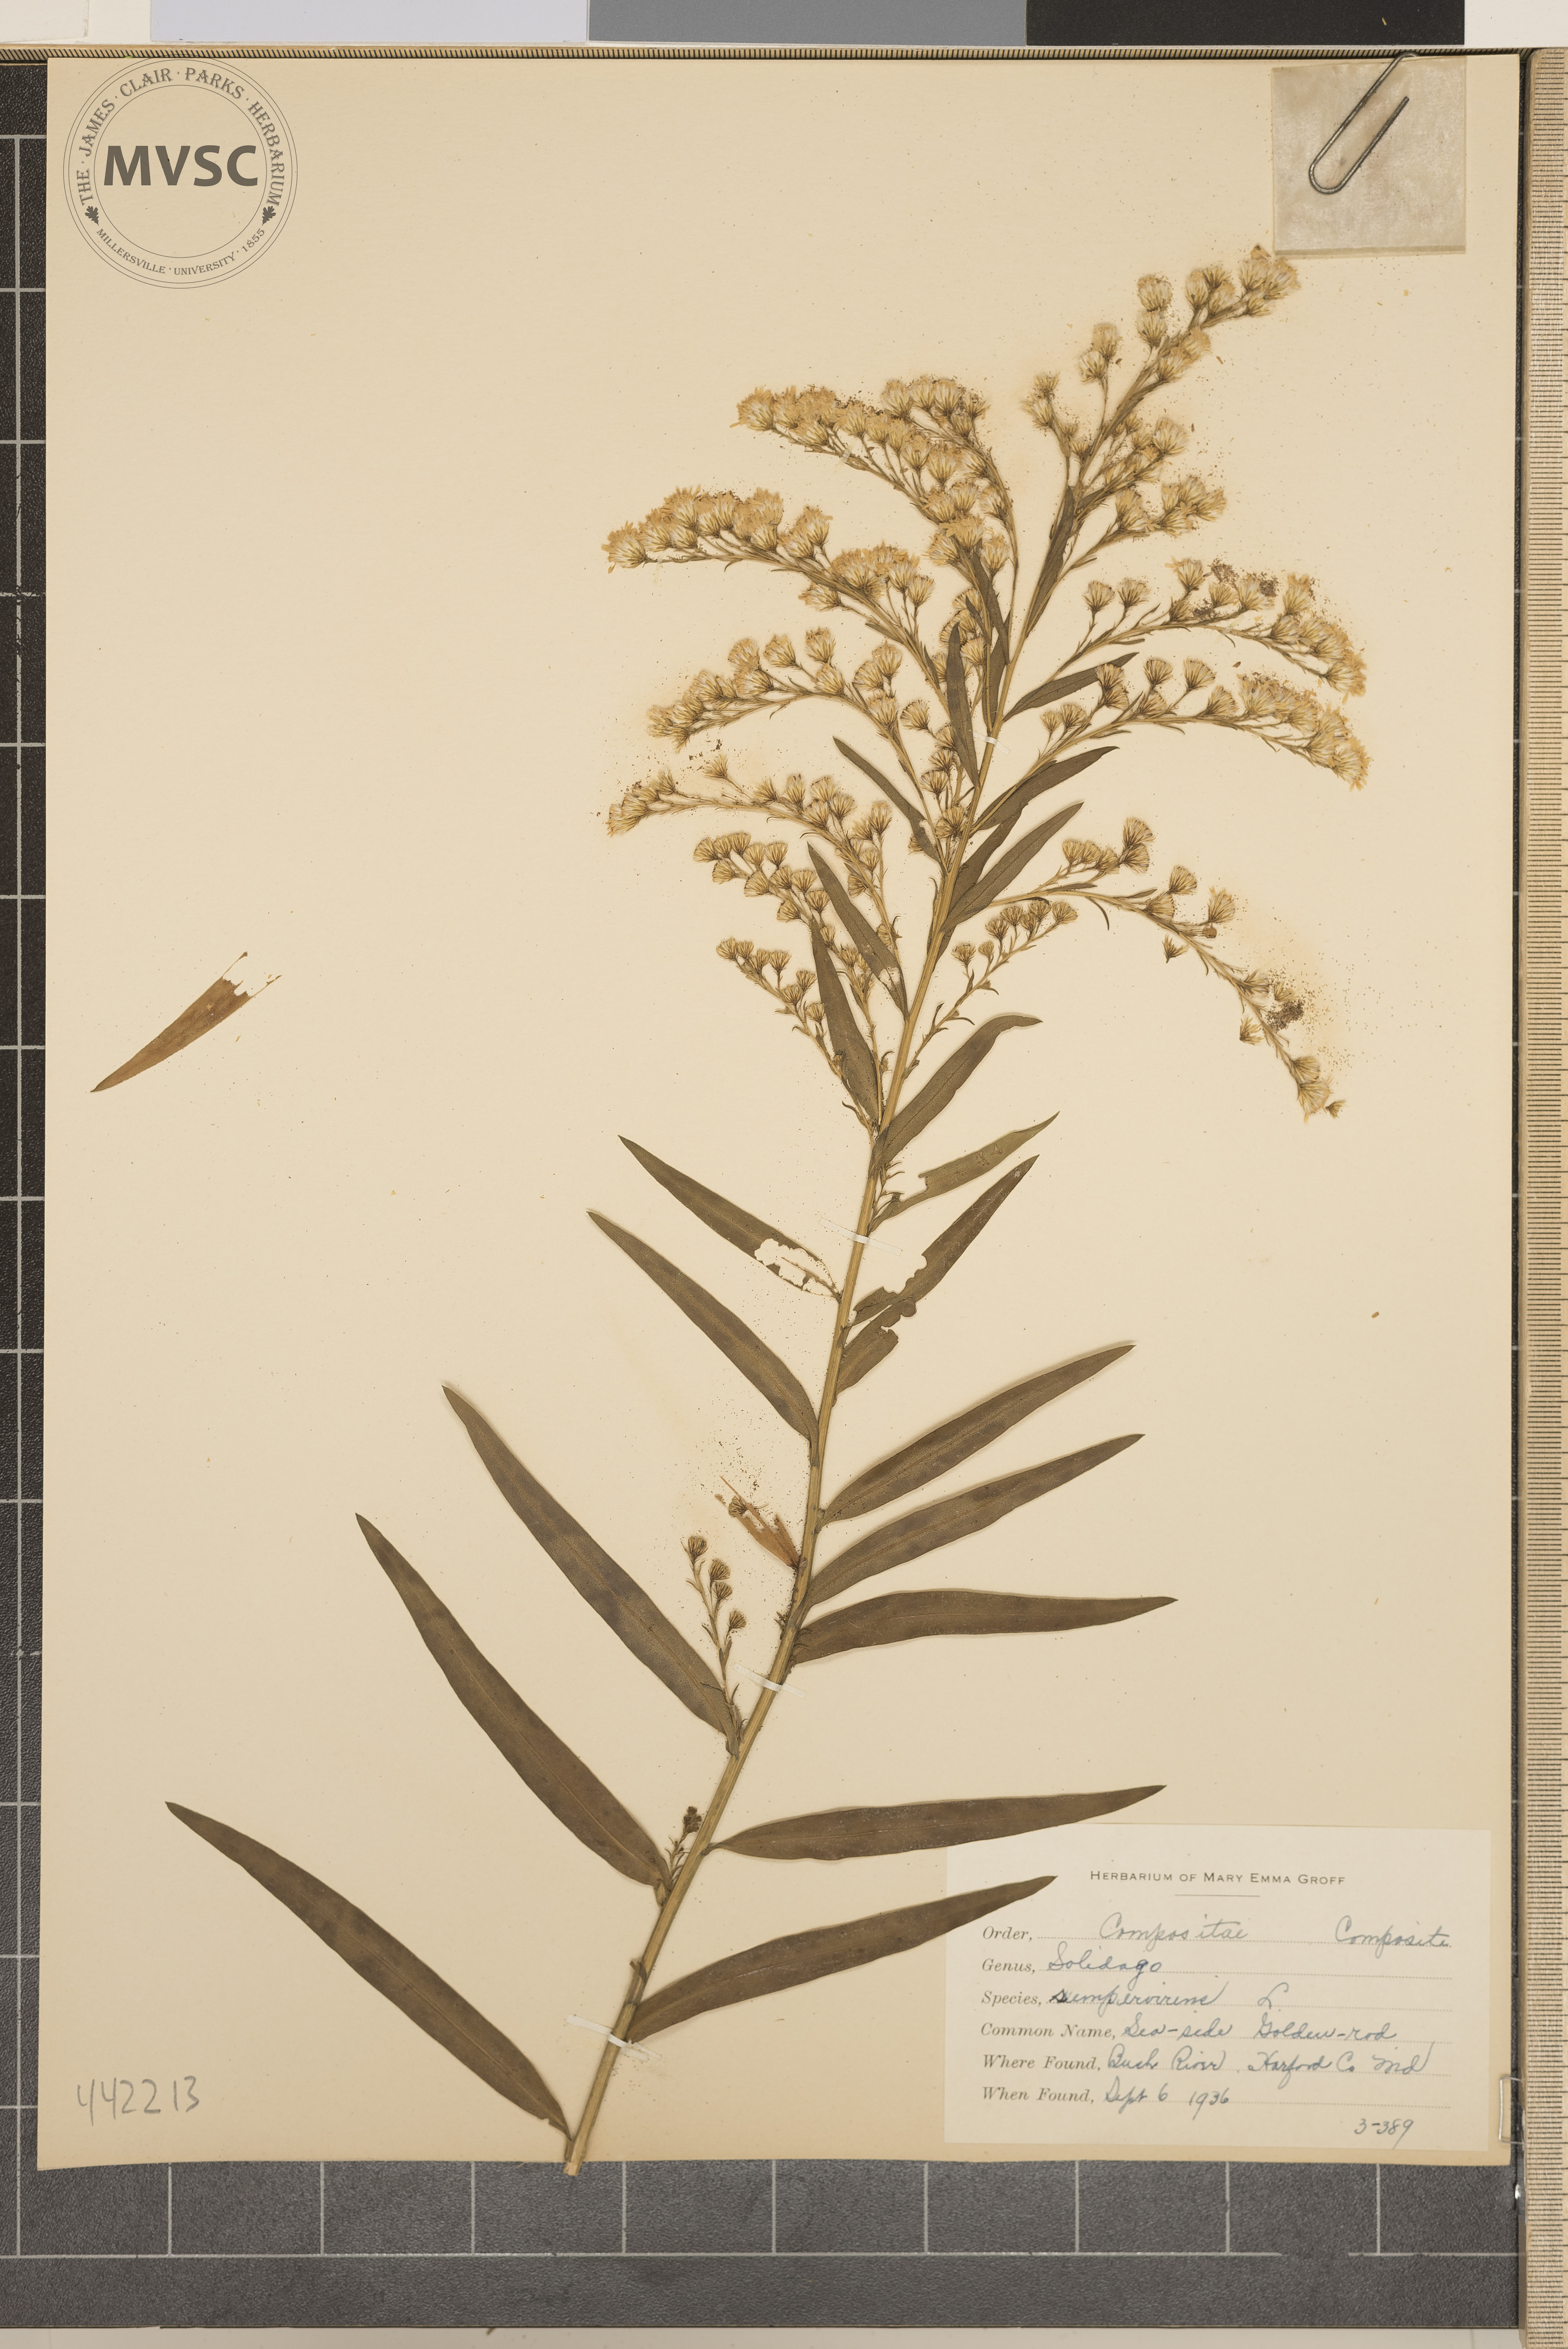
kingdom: Plantae
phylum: Tracheophyta
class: Magnoliopsida
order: Asterales
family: Asteraceae
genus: Solidago
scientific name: Solidago sempervirens
